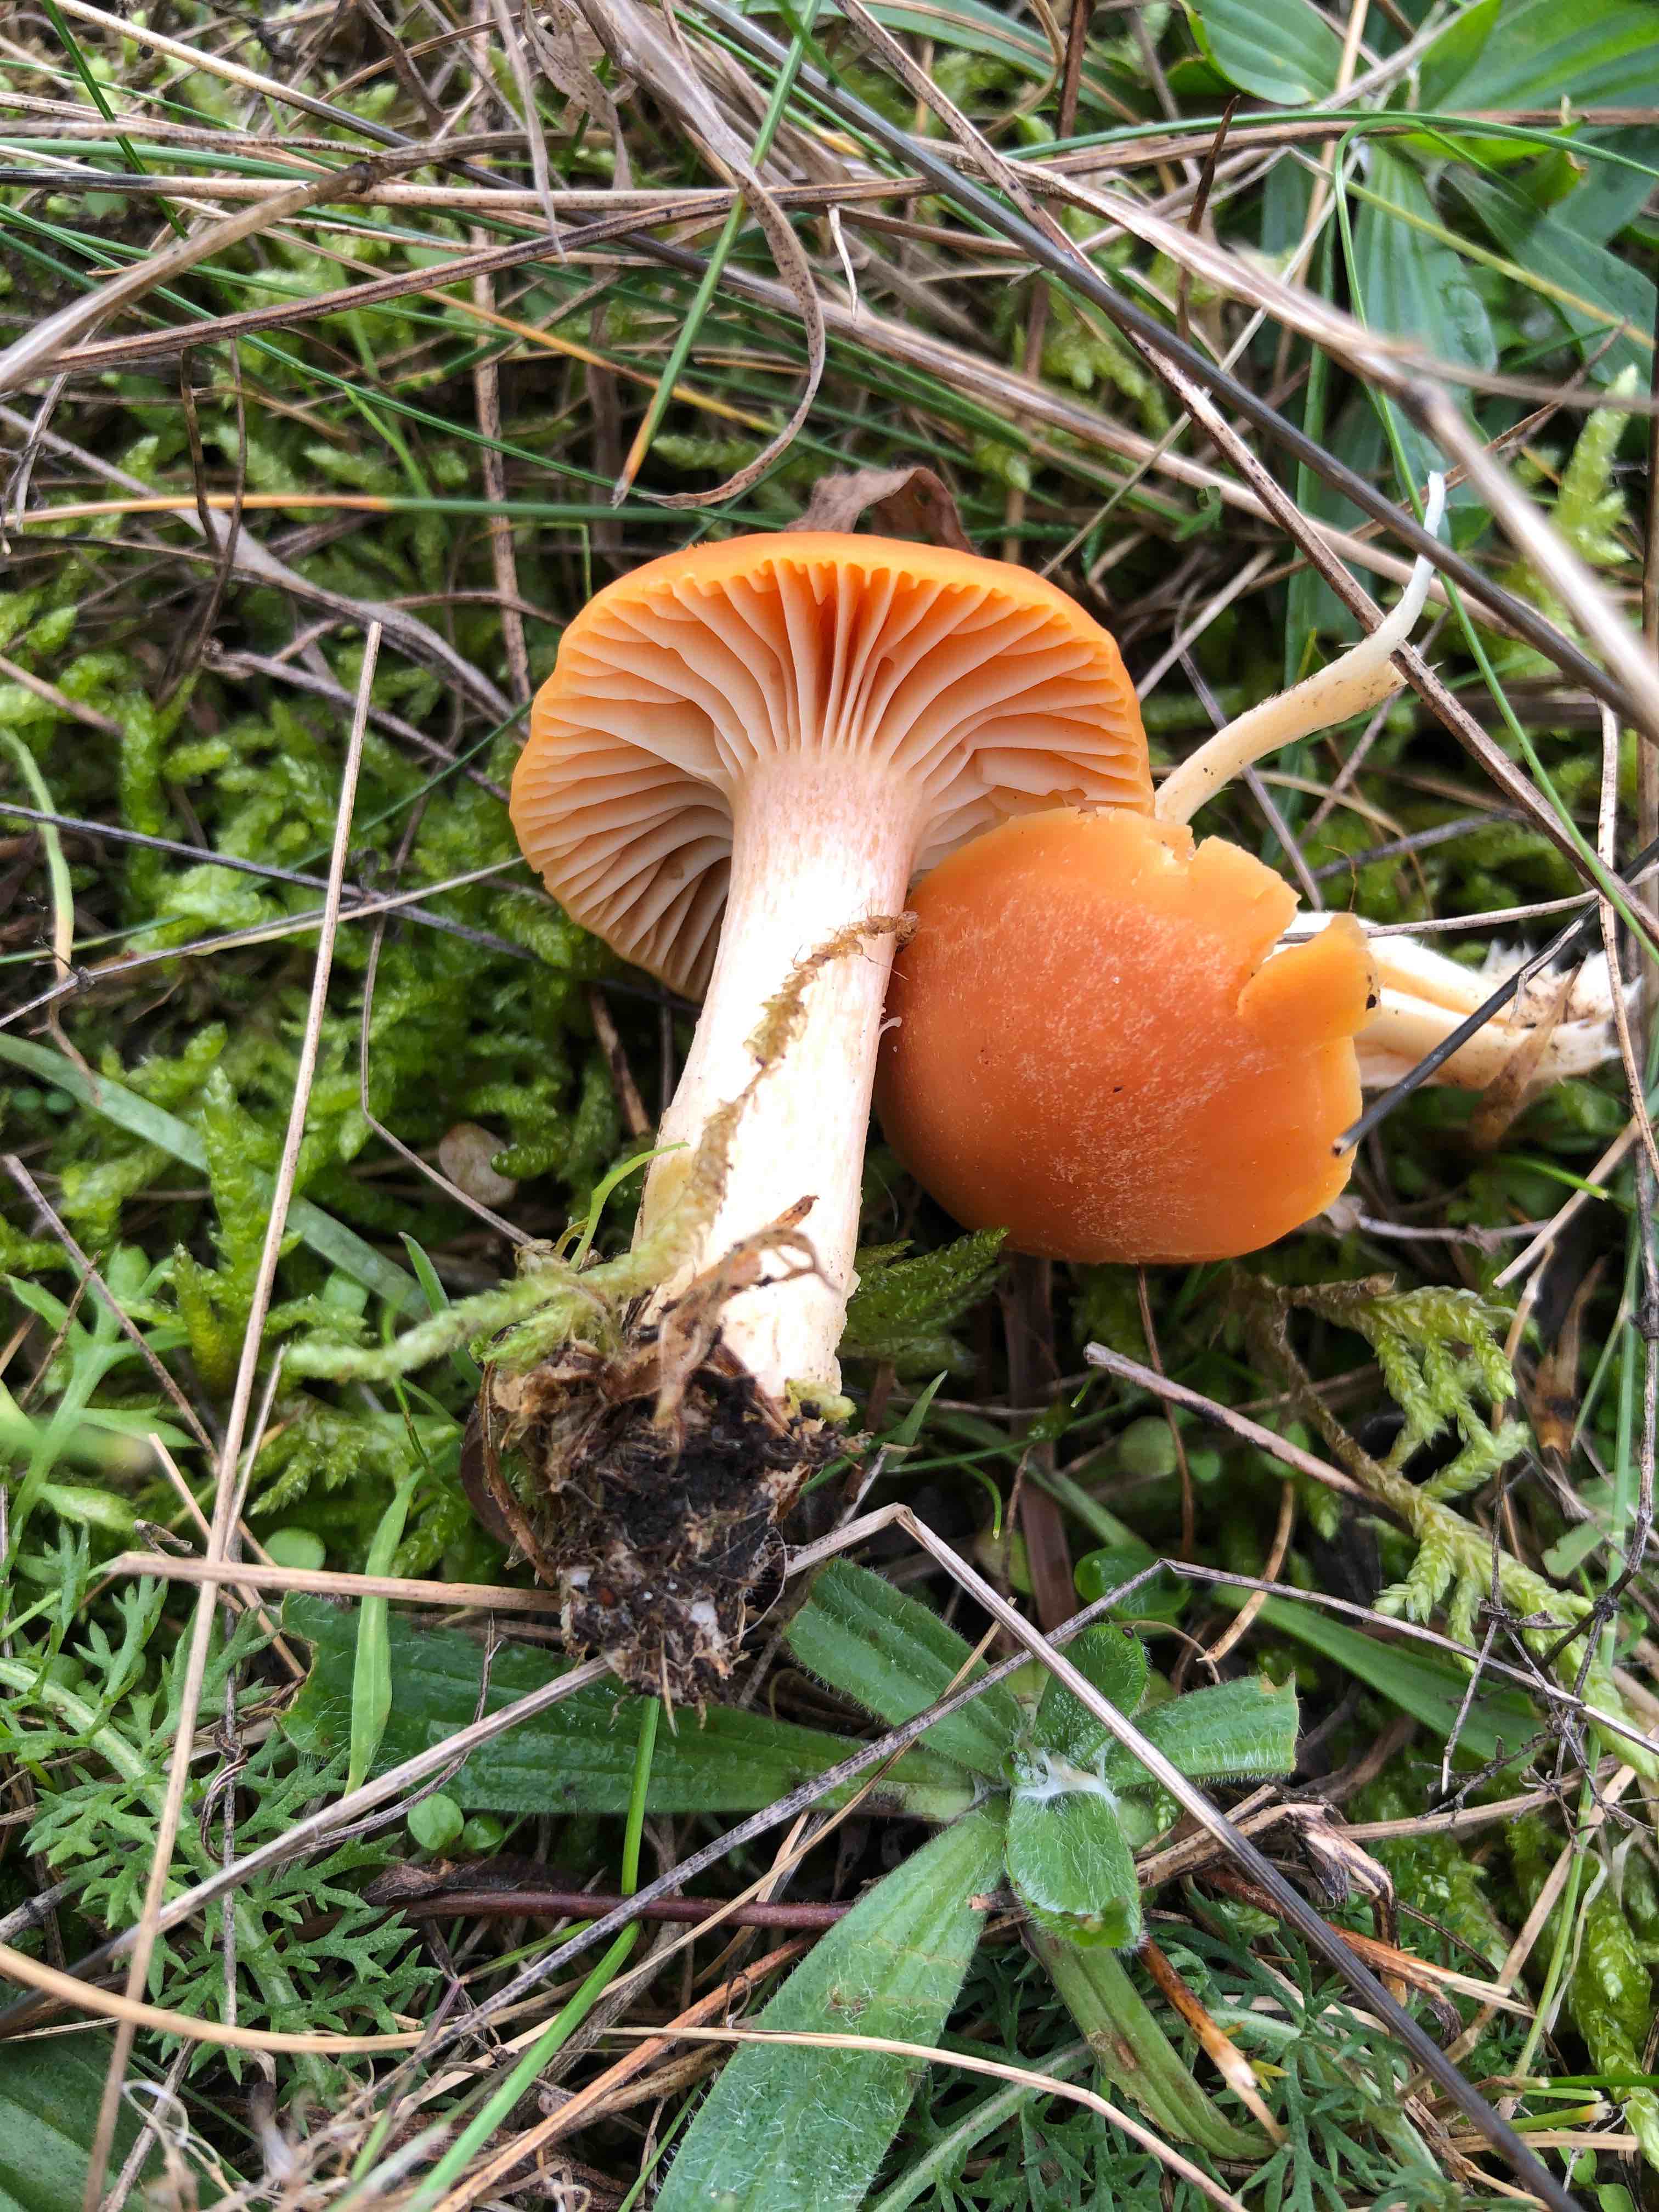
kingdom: Fungi
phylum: Basidiomycota
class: Agaricomycetes
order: Agaricales
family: Hygrophoraceae
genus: Cuphophyllus
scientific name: Cuphophyllus pratensis
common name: eng-vokshat
